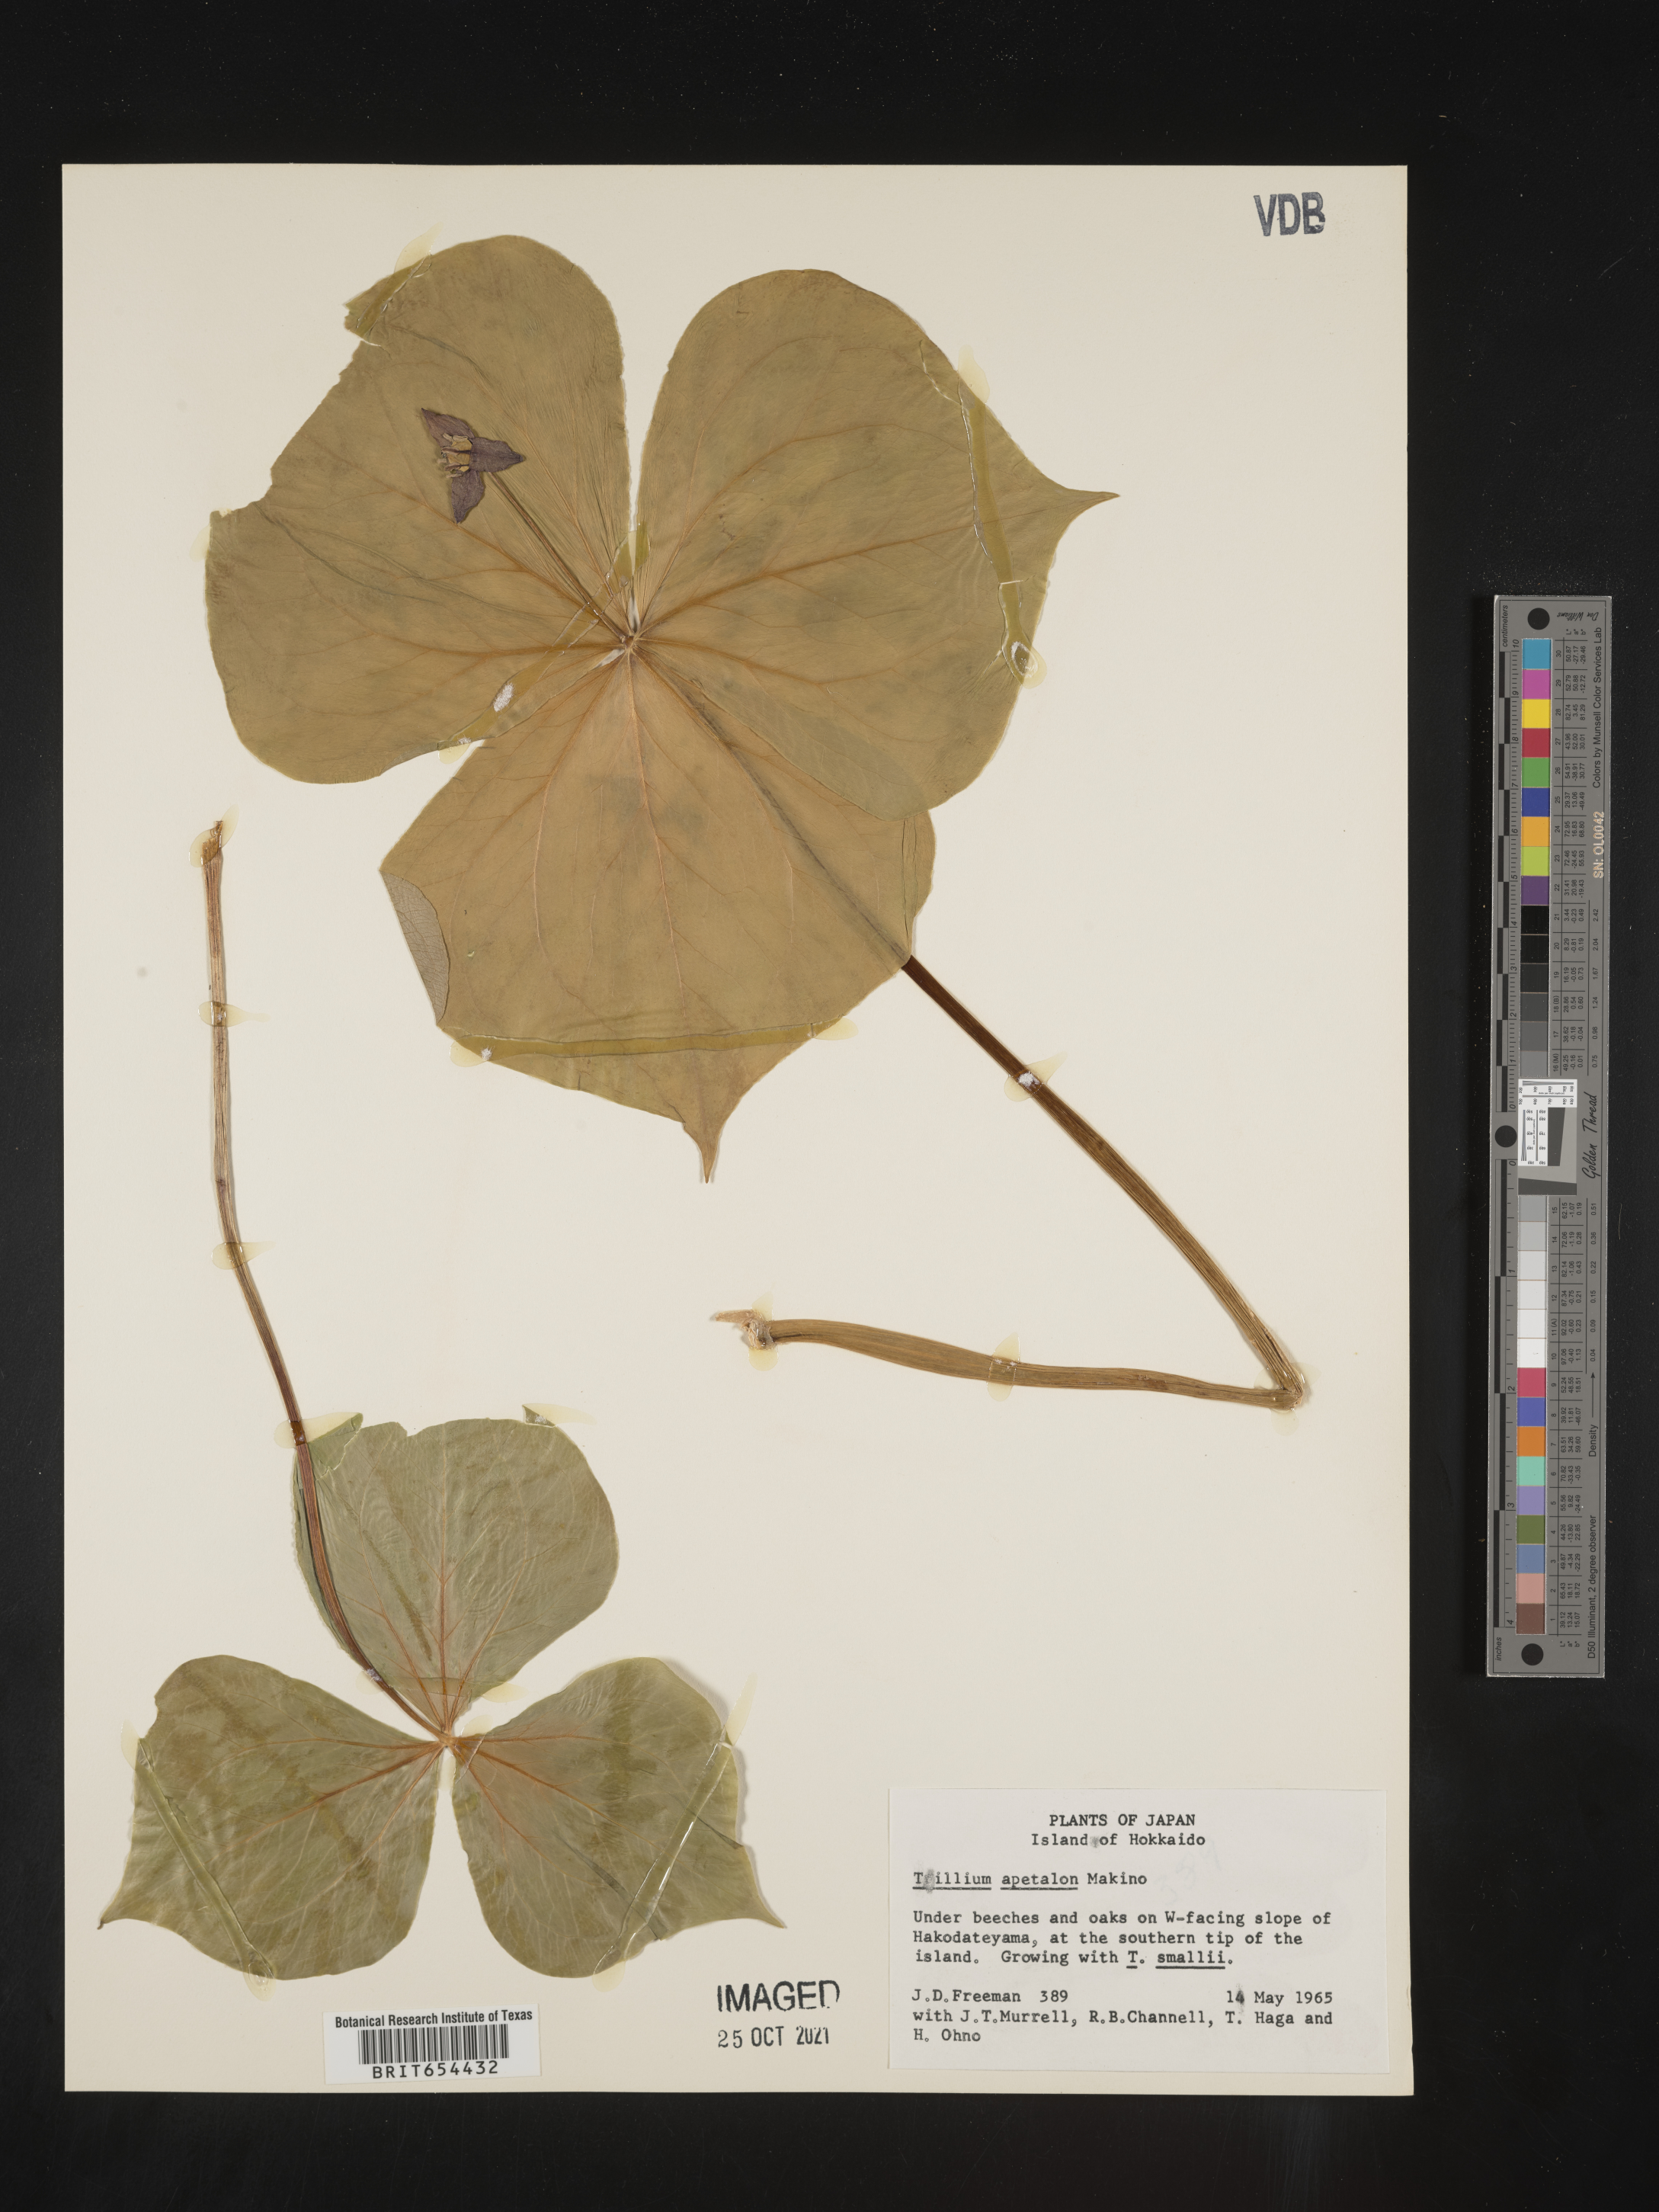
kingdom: Plantae
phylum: Tracheophyta
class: Liliopsida
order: Liliales
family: Melanthiaceae
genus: Trillium
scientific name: Trillium
